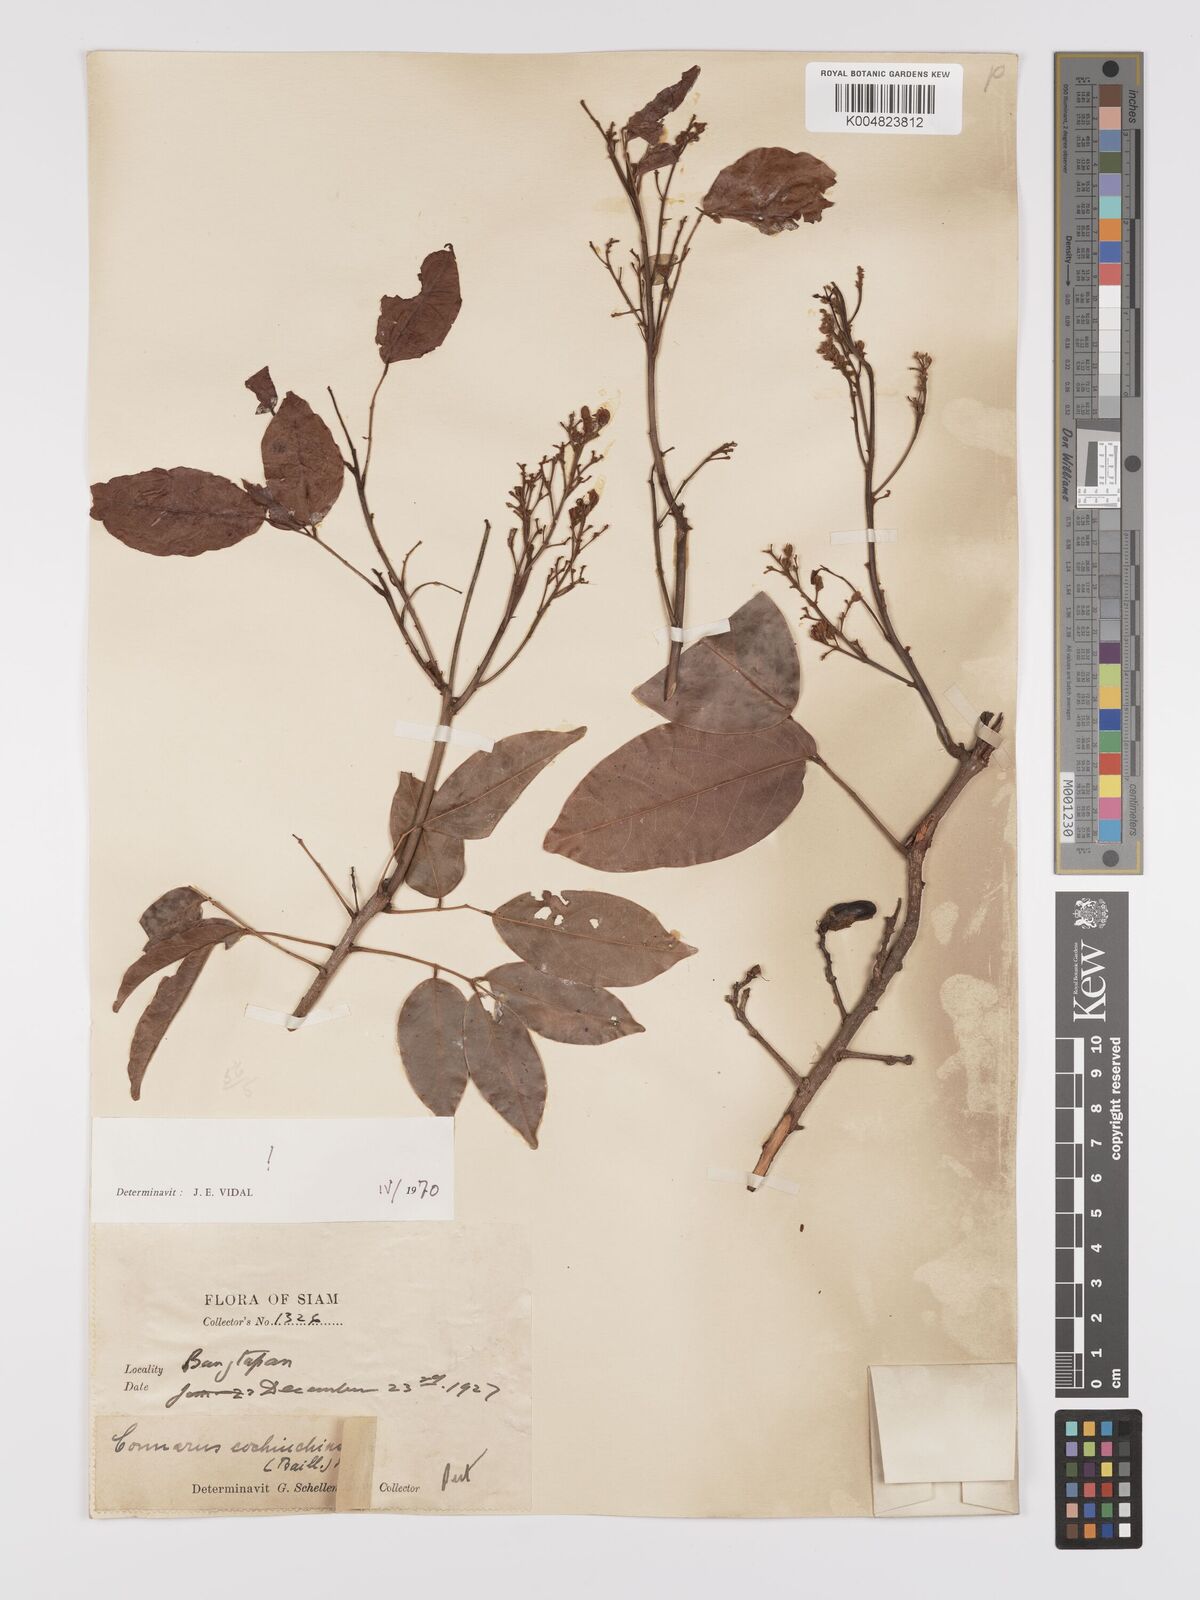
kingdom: Plantae
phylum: Tracheophyta
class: Magnoliopsida
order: Oxalidales
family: Connaraceae
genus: Connarus
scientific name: Connarus cochinchinensis
